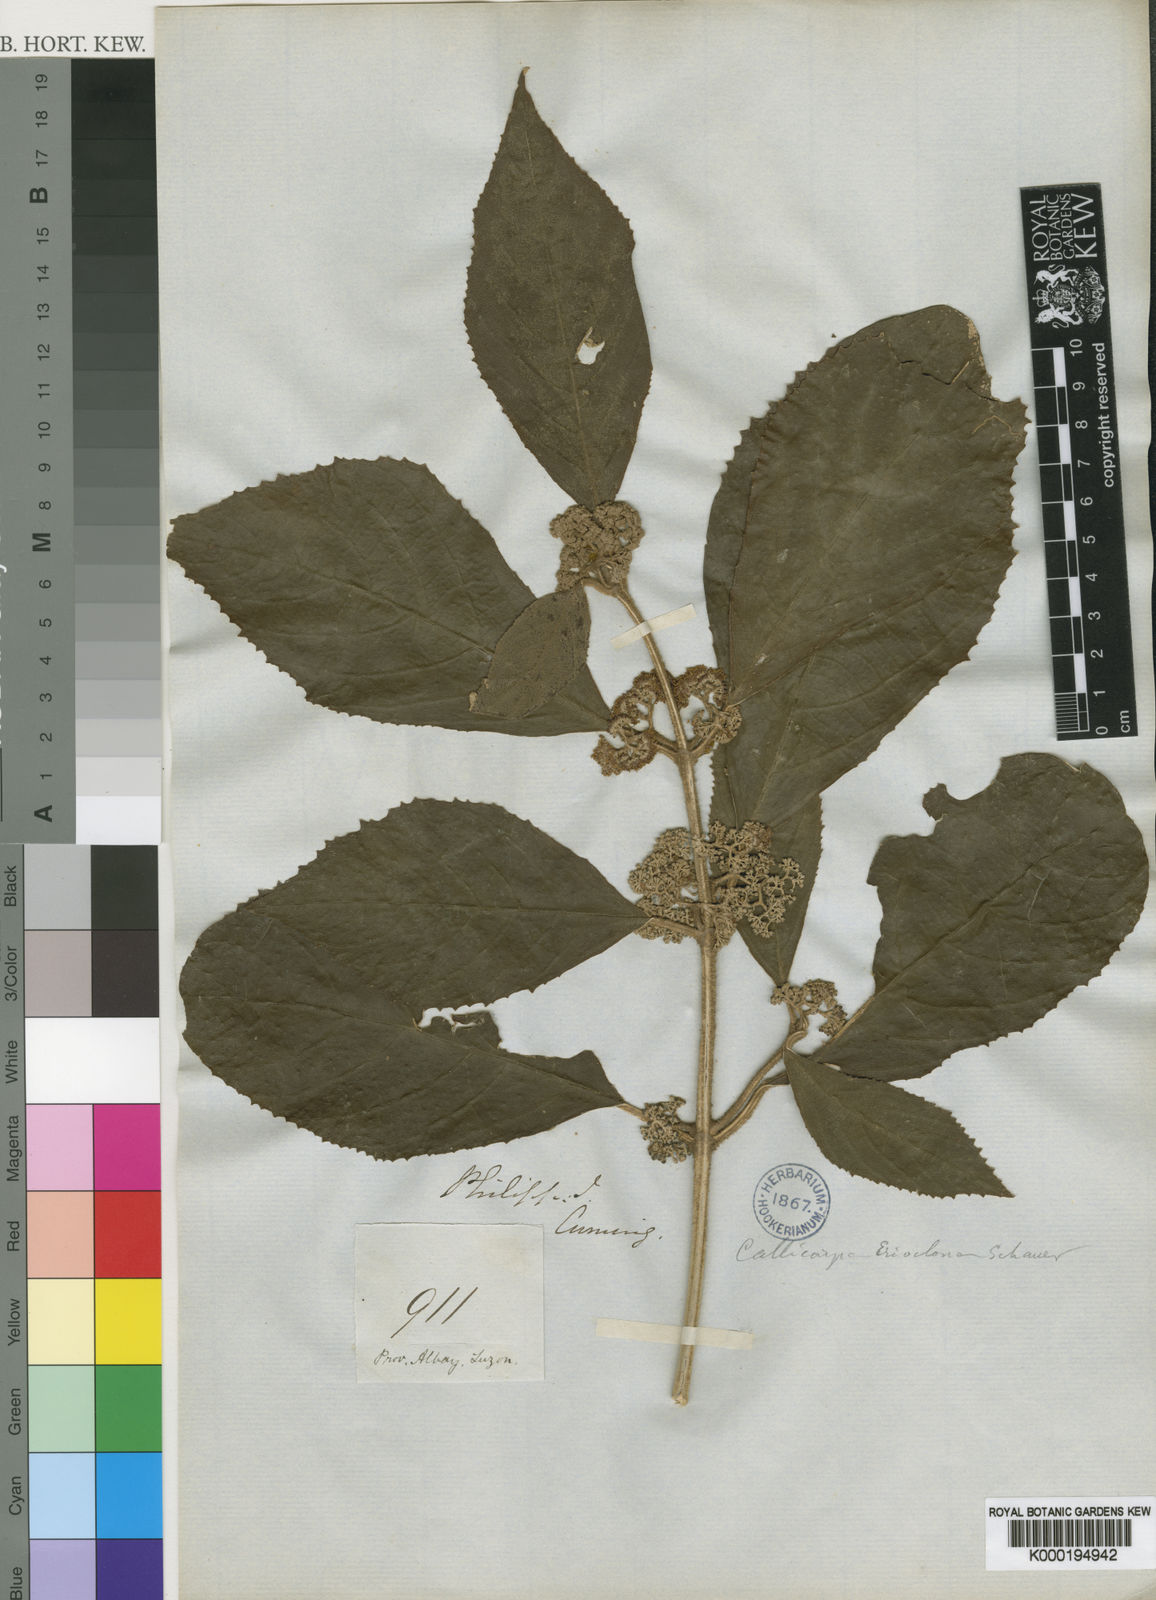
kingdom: Plantae
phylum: Tracheophyta
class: Magnoliopsida
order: Lamiales
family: Lamiaceae
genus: Callicarpa
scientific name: Callicarpa erioclona
